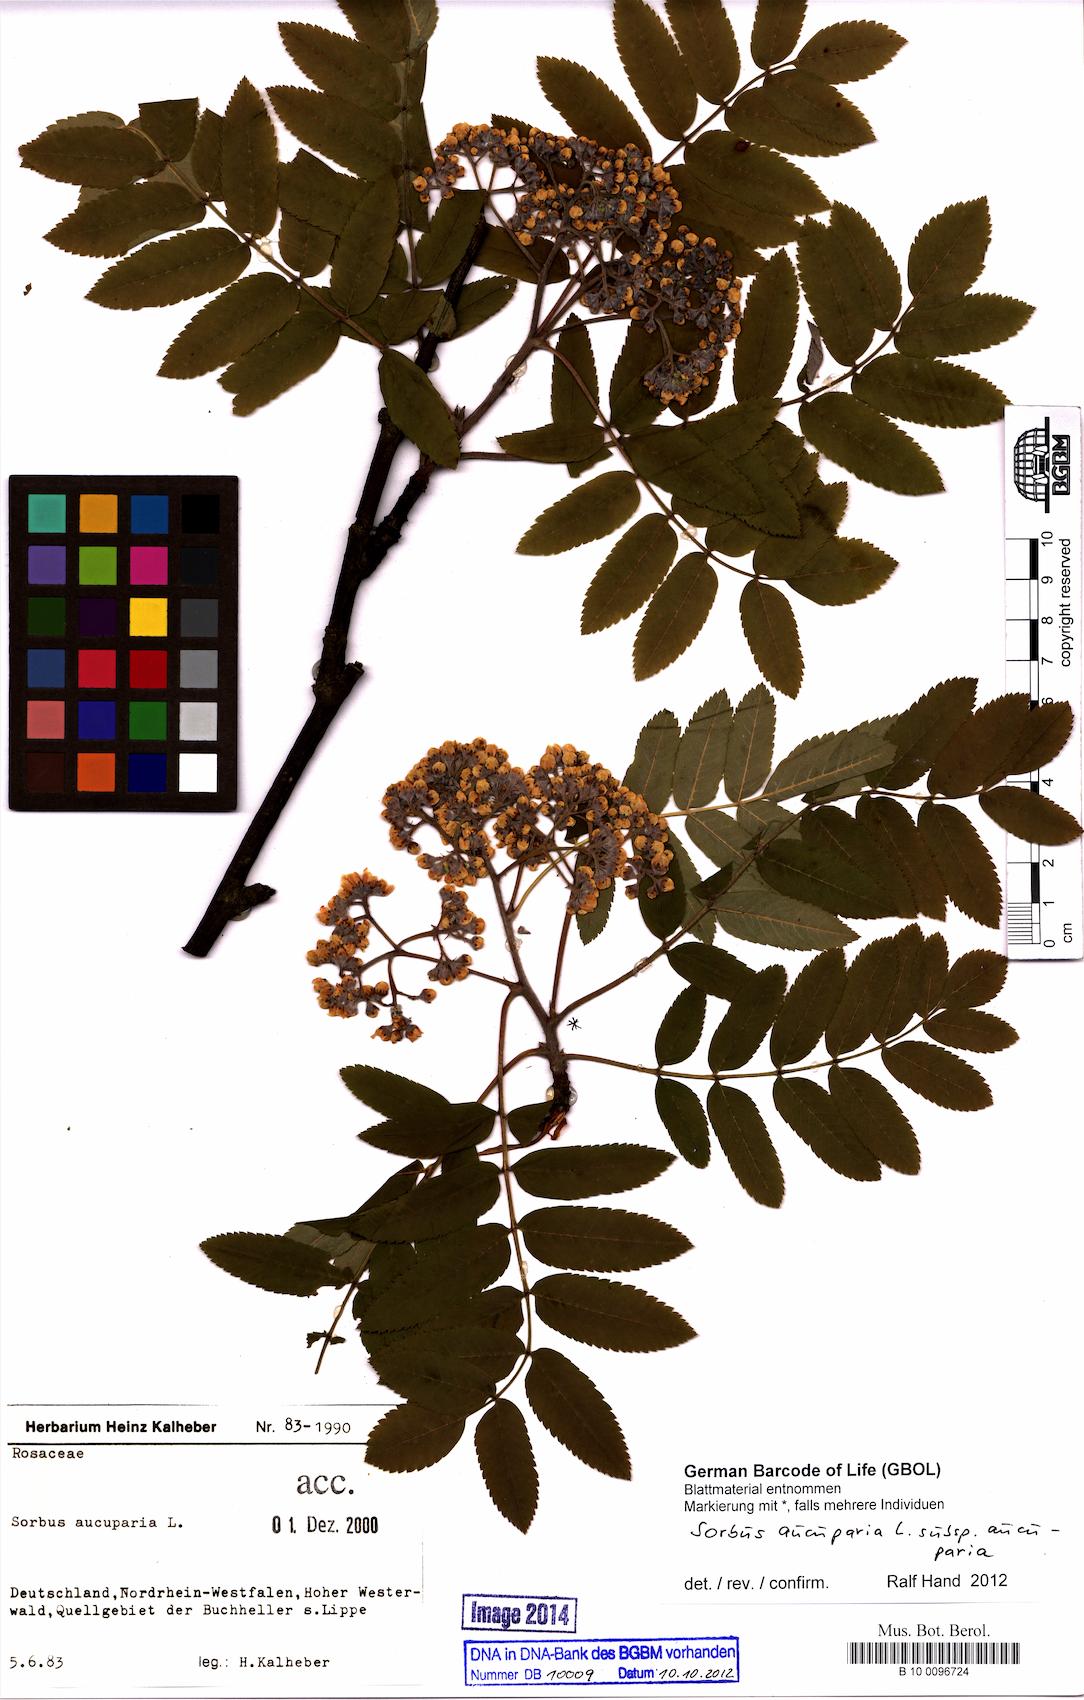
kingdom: Plantae
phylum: Tracheophyta
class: Magnoliopsida
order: Rosales
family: Rosaceae
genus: Sorbus
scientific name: Sorbus aucuparia
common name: Rowan
